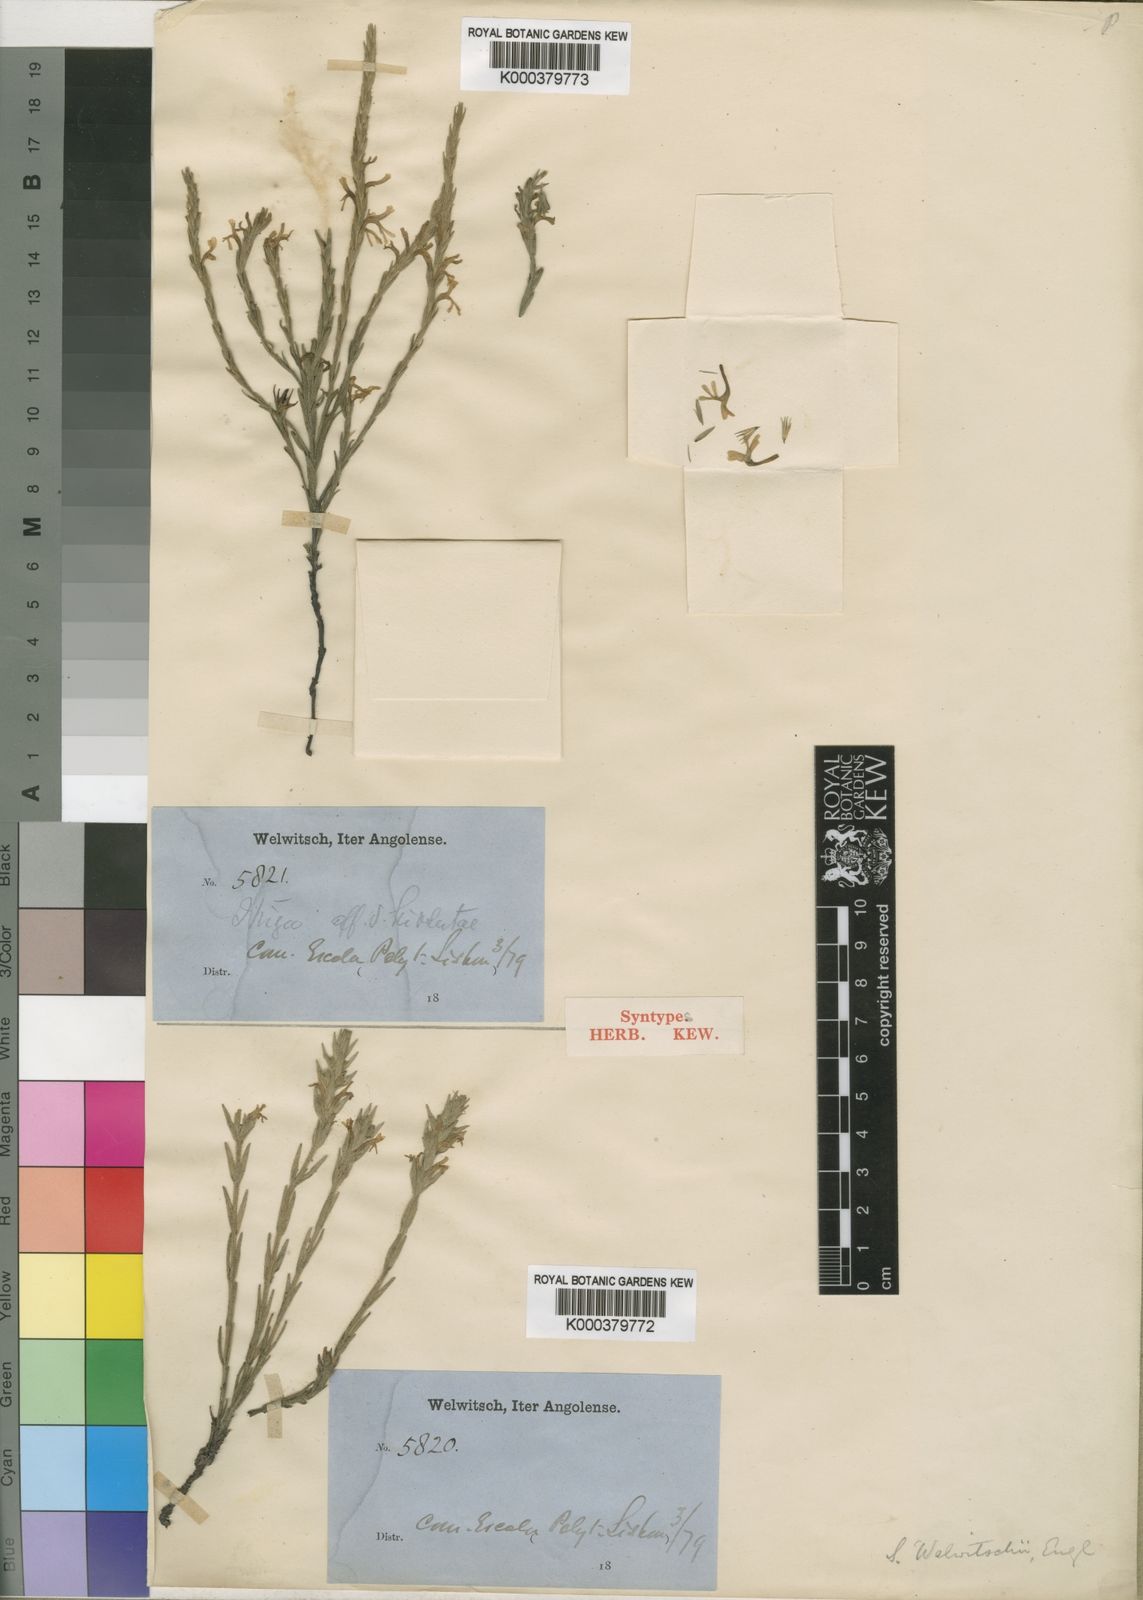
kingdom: Plantae
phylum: Tracheophyta
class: Magnoliopsida
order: Lamiales
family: Orobanchaceae
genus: Striga
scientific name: Striga bilabiata
